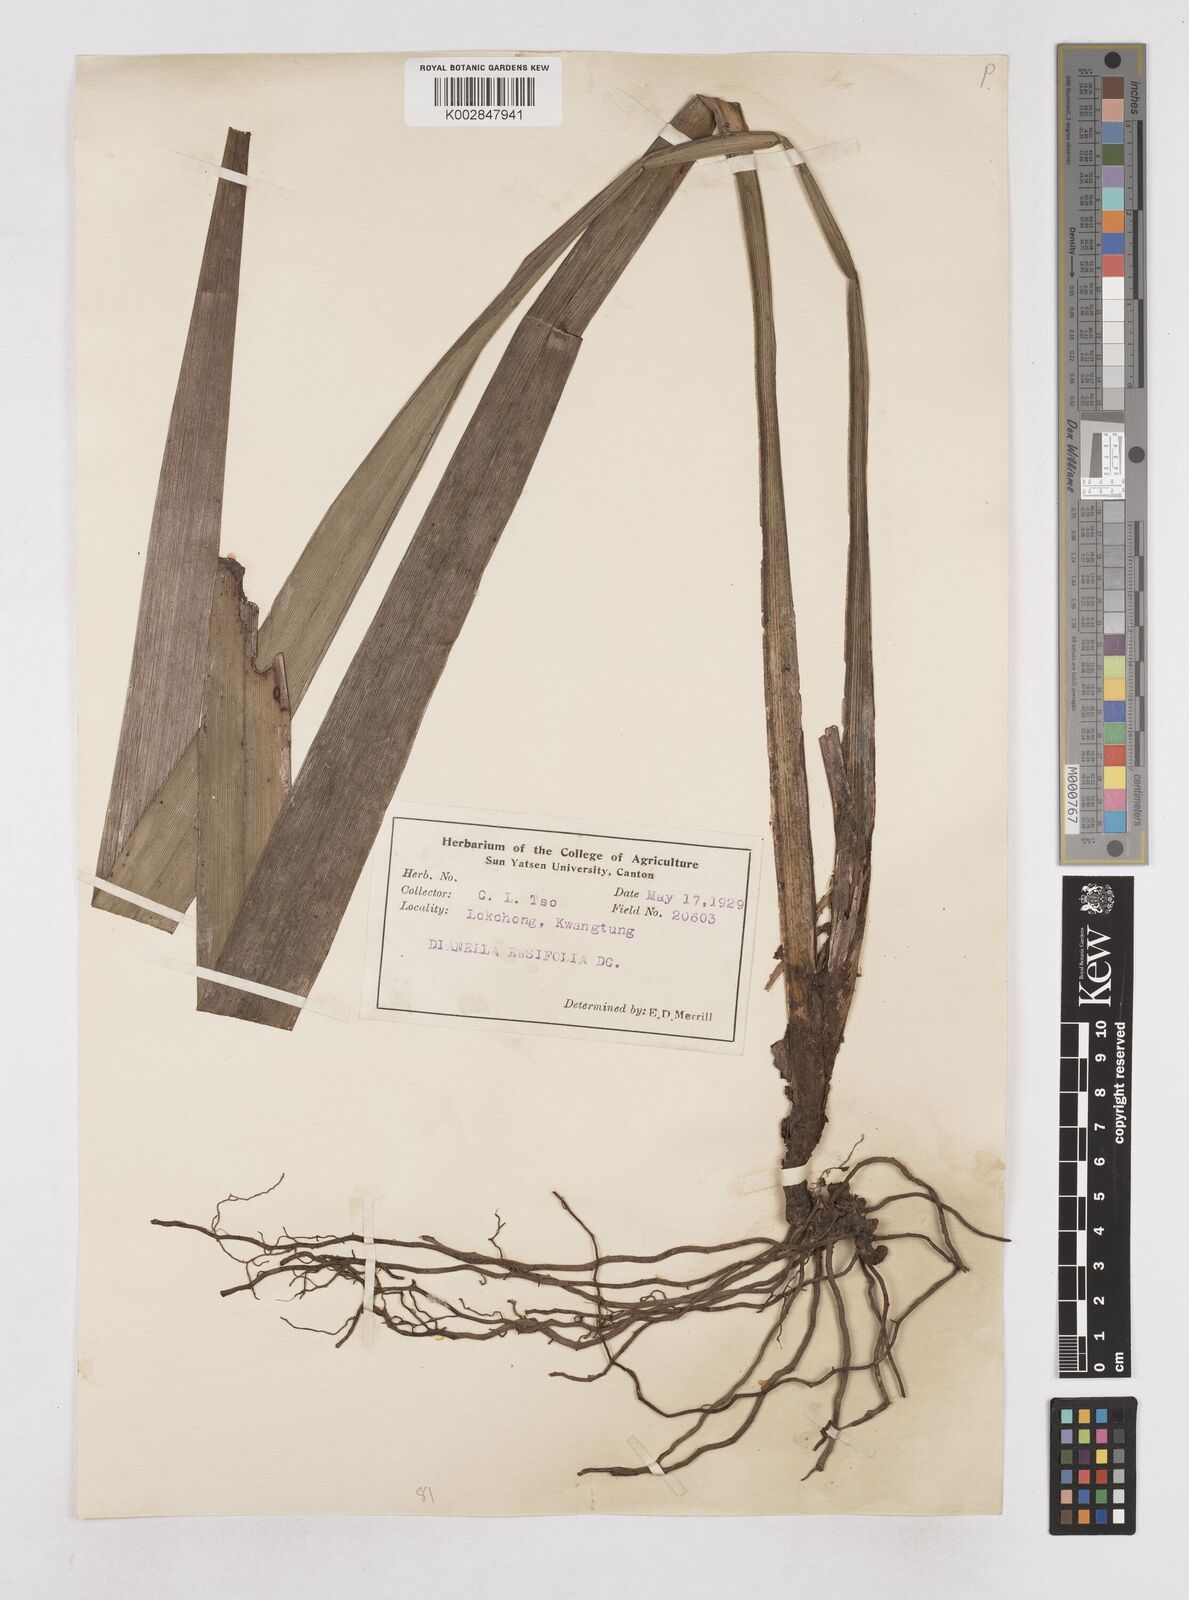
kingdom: Plantae
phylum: Tracheophyta
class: Liliopsida
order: Asparagales
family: Asphodelaceae
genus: Dianella
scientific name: Dianella ensifolia
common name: New zealand lilyplant
